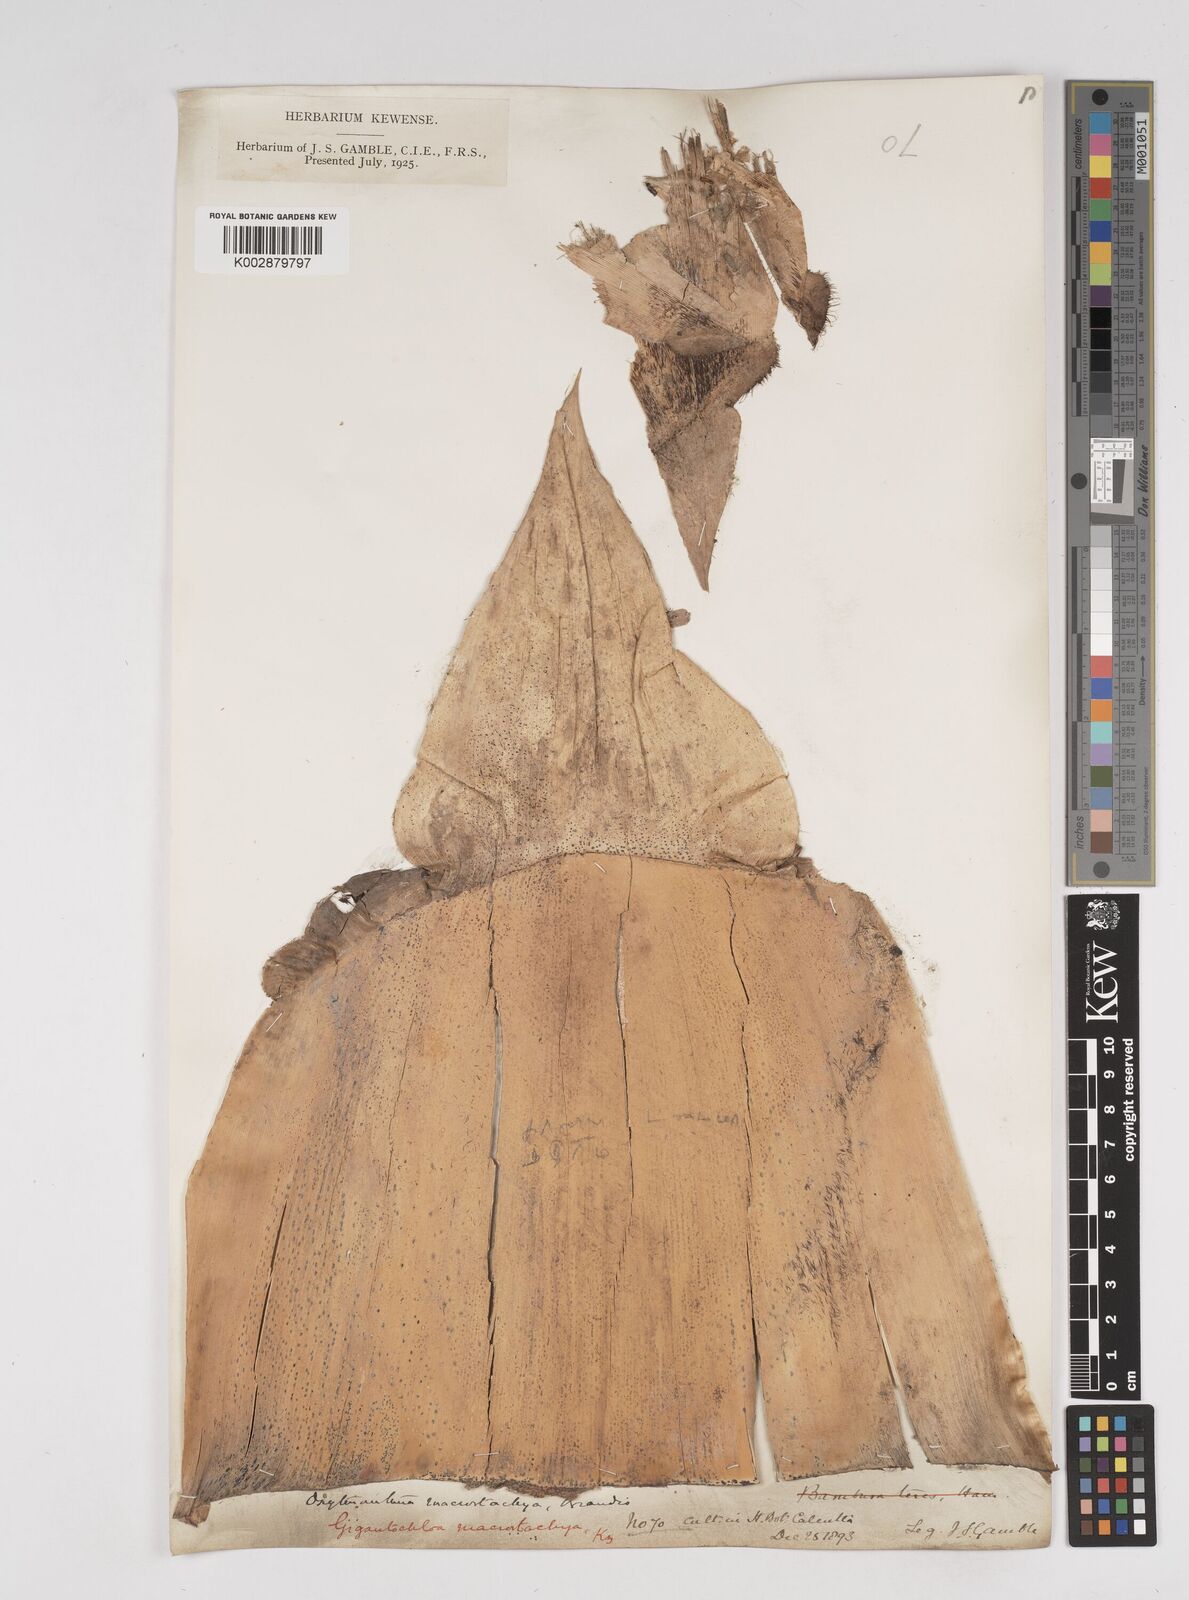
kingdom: Plantae
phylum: Tracheophyta
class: Liliopsida
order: Poales
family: Poaceae
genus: Gigantochloa
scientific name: Gigantochloa macrostachya
